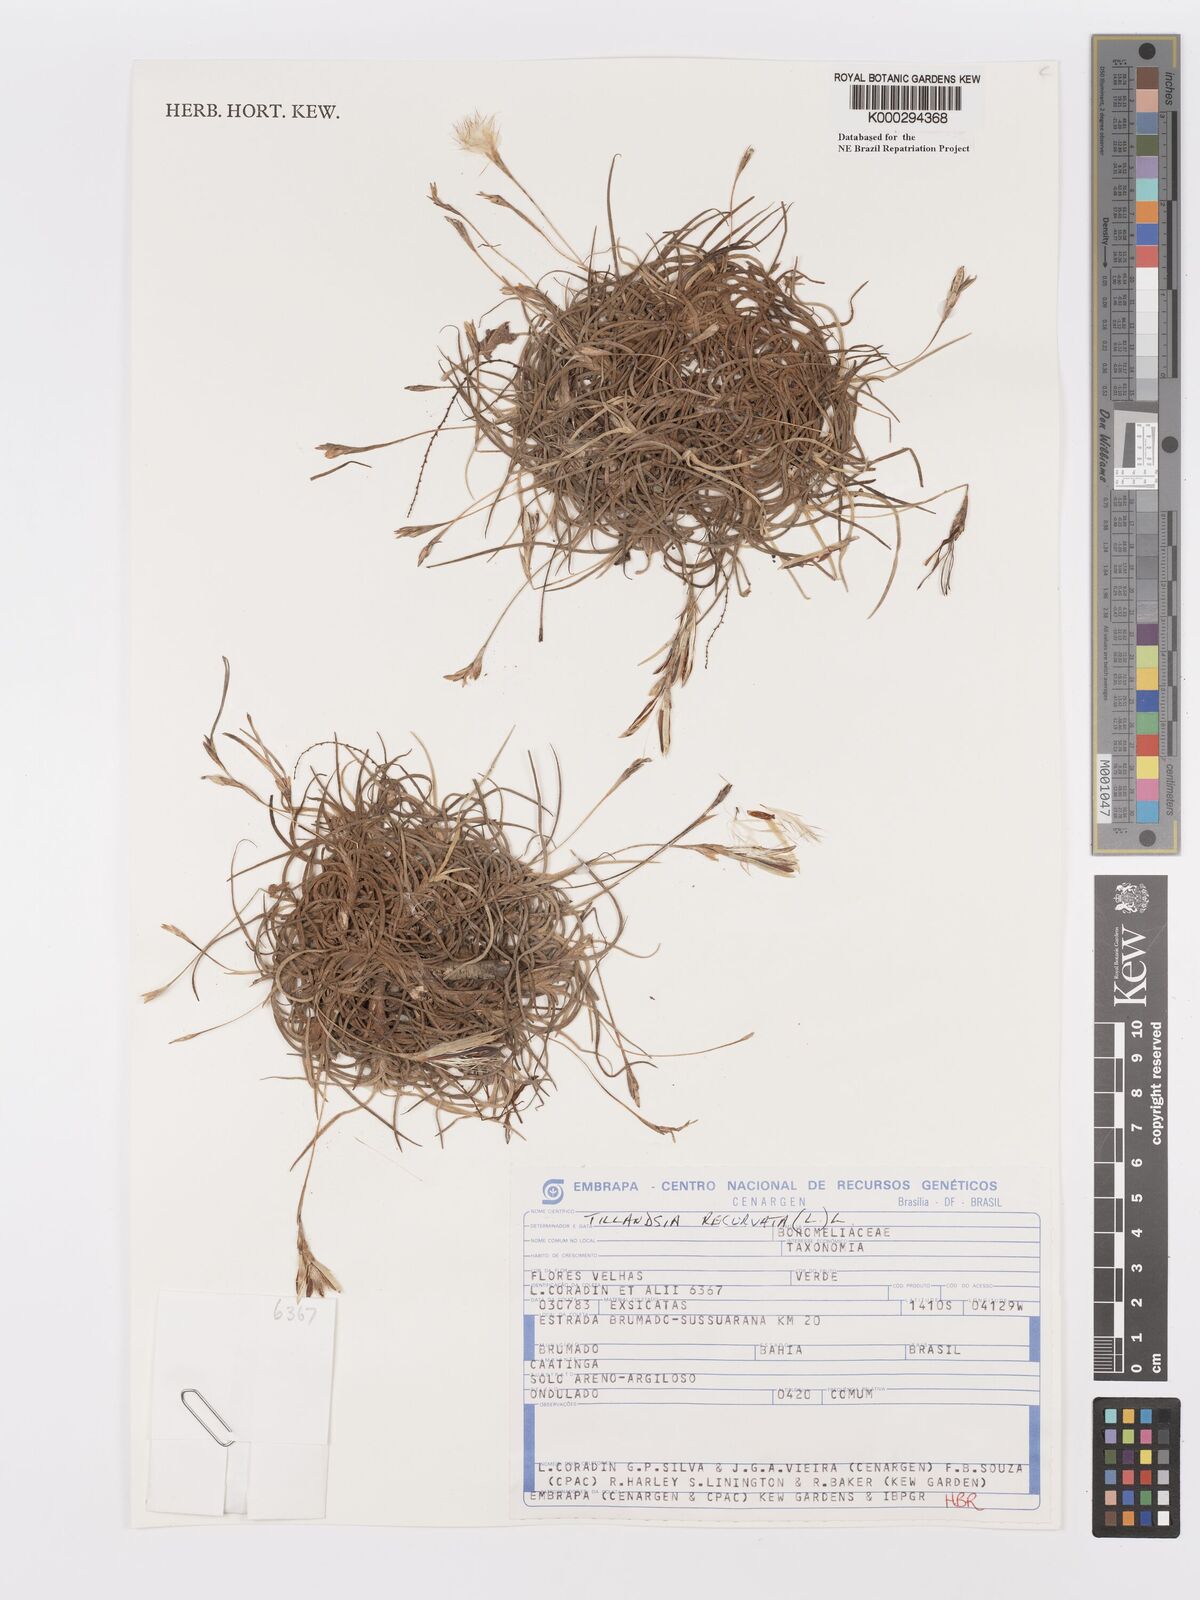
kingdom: Plantae
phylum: Tracheophyta
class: Liliopsida
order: Poales
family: Bromeliaceae
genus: Tillandsia
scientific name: Tillandsia recurvata
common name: Small ballmoss
